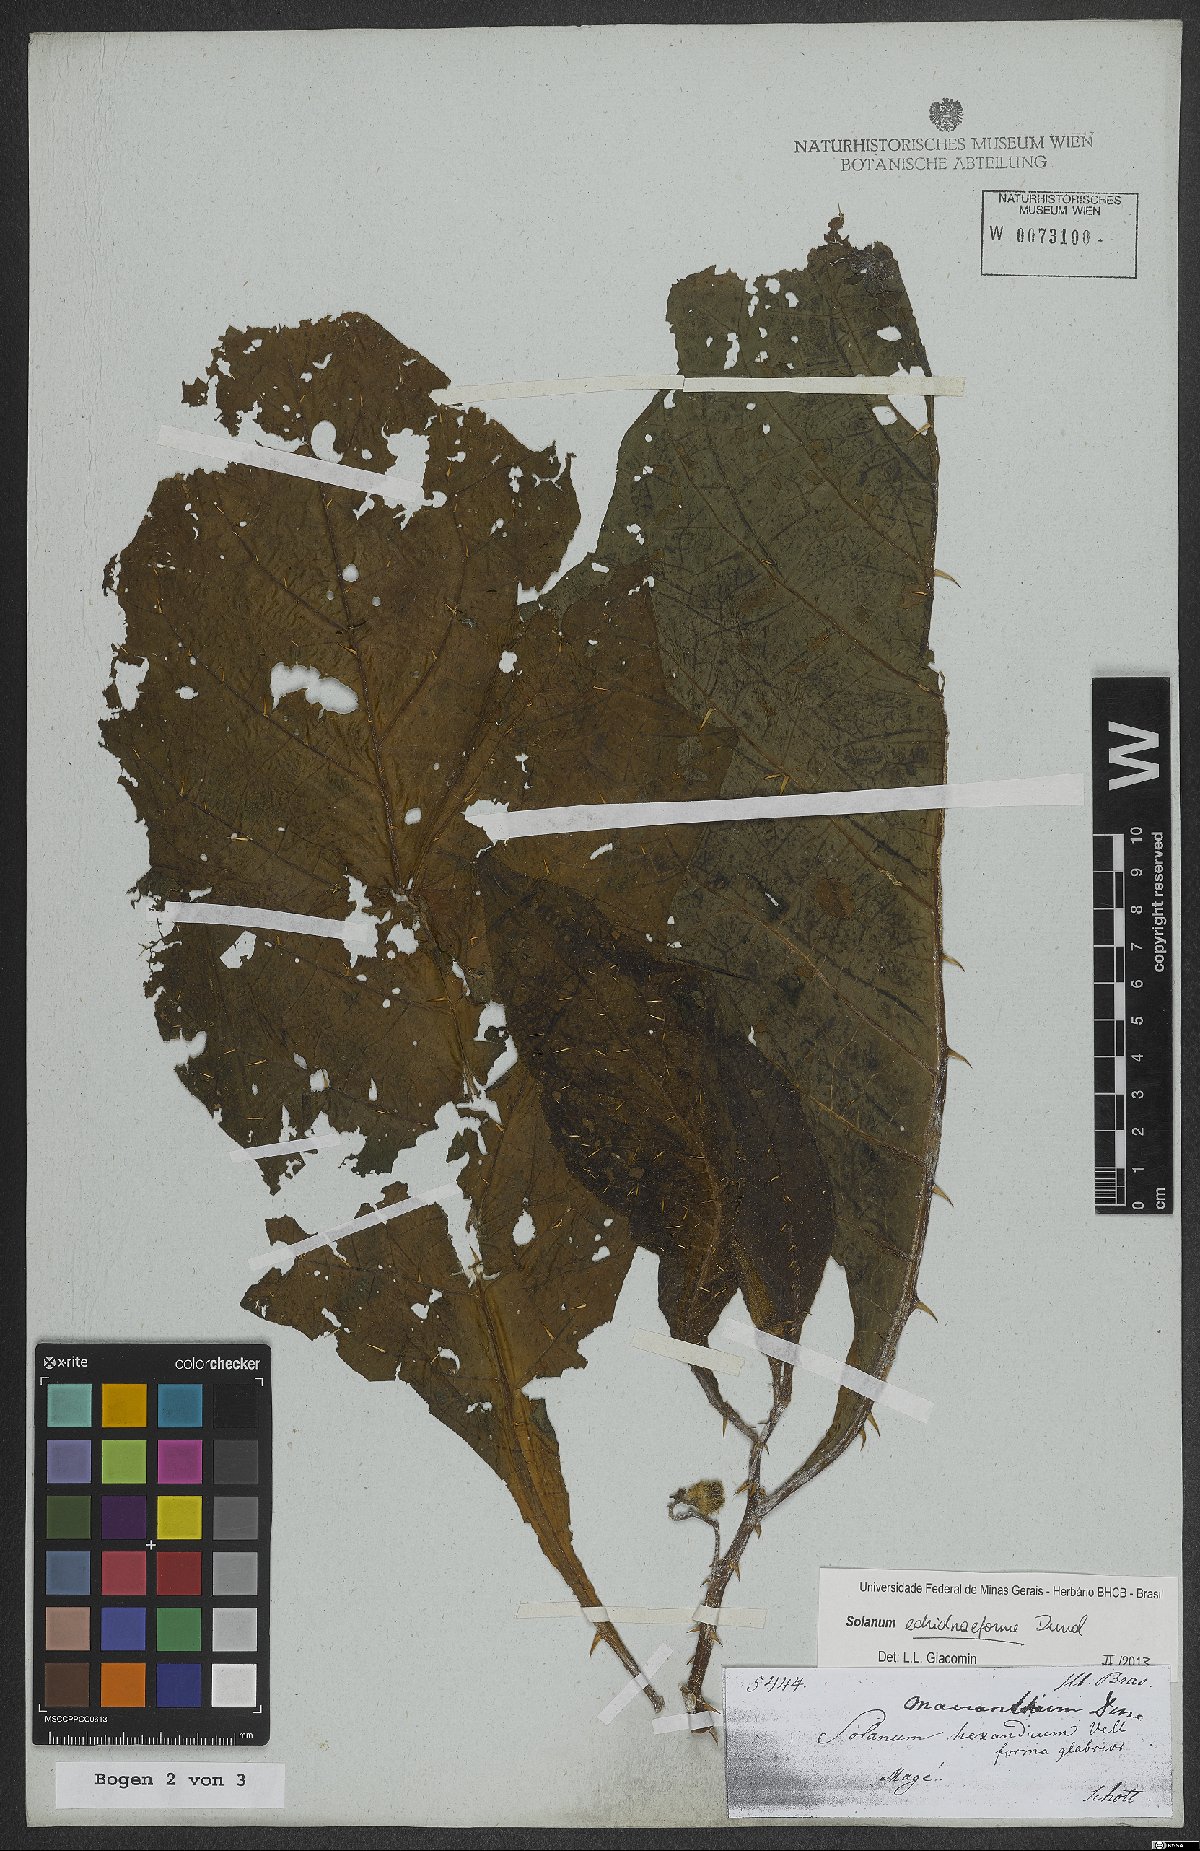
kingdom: Plantae
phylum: Tracheophyta
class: Magnoliopsida
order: Solanales
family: Solanaceae
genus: Solanum
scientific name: Solanum hexandrum
